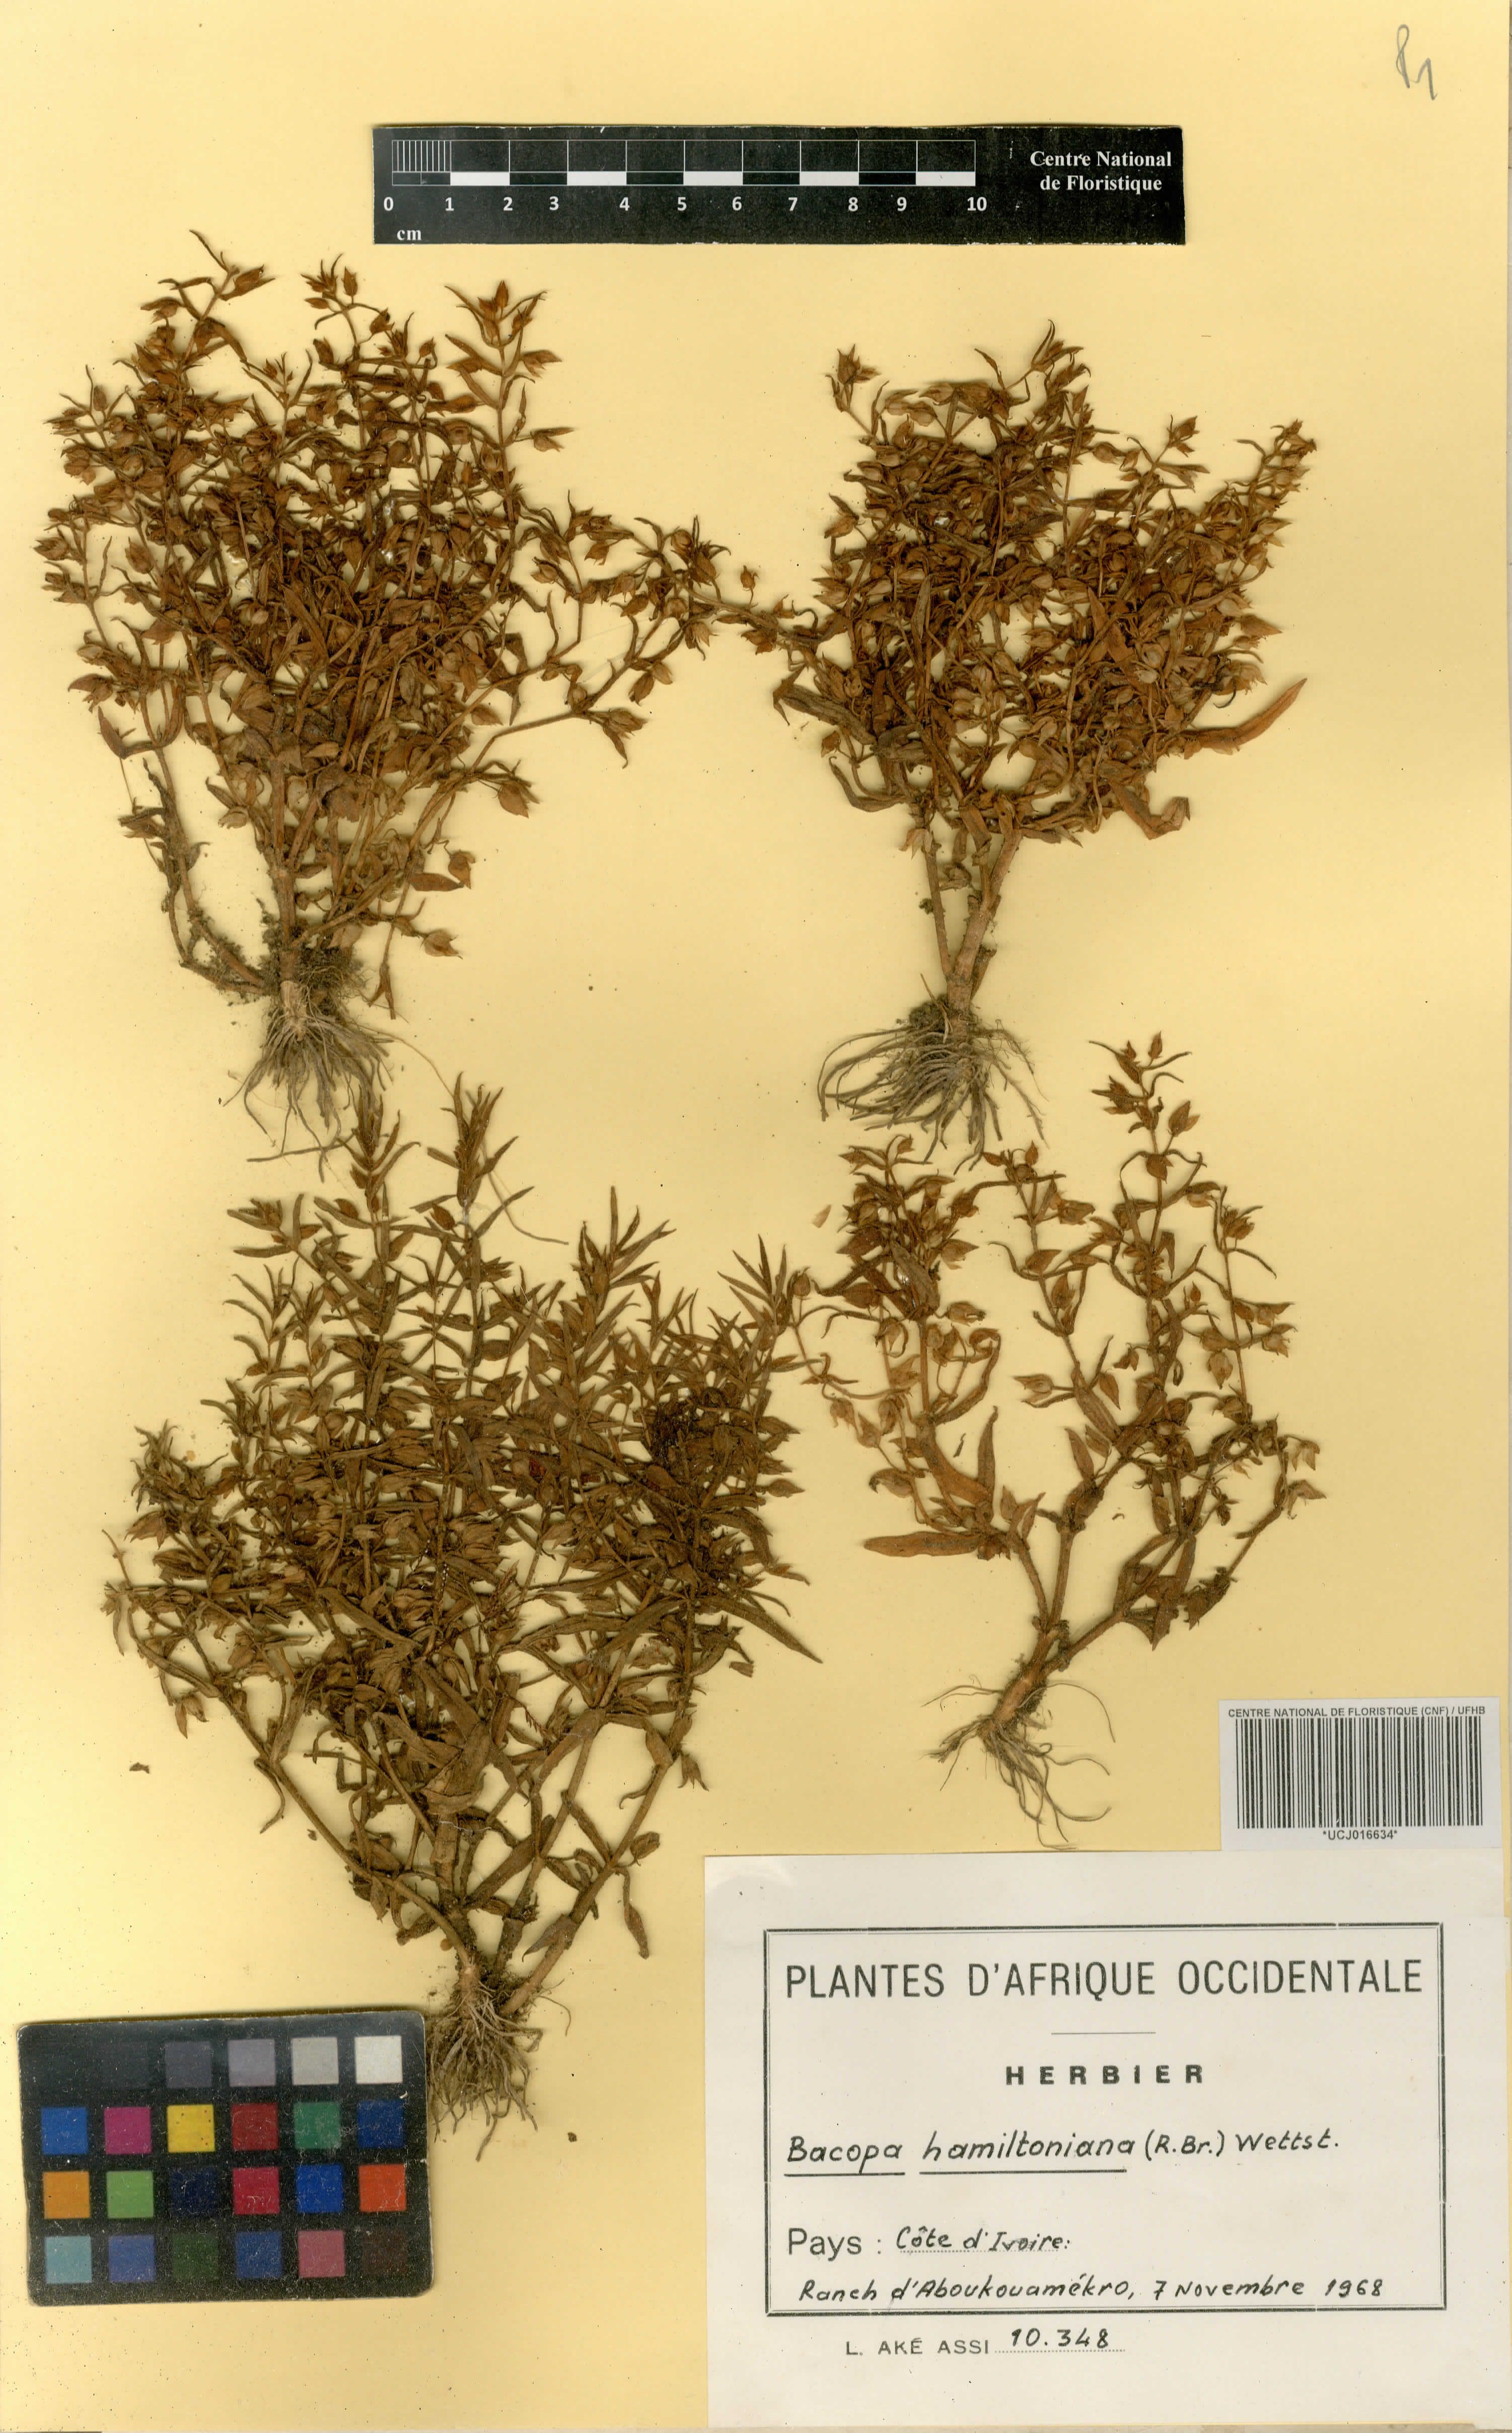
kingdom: Plantae
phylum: Tracheophyta
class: Magnoliopsida
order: Lamiales
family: Plantaginaceae
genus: Bacopa
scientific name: Bacopa hamiltoniana
